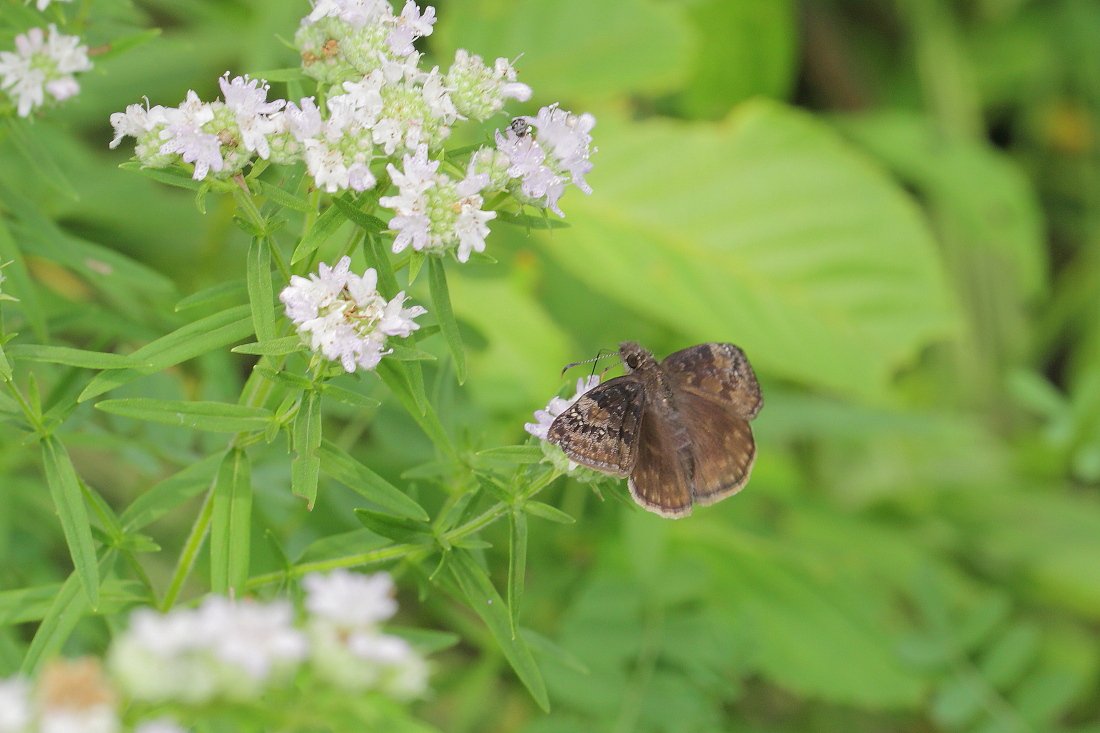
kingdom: Animalia
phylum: Arthropoda
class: Insecta
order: Lepidoptera
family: Hesperiidae
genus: Gesta
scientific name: Gesta
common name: Wild Indigo Duskywing
